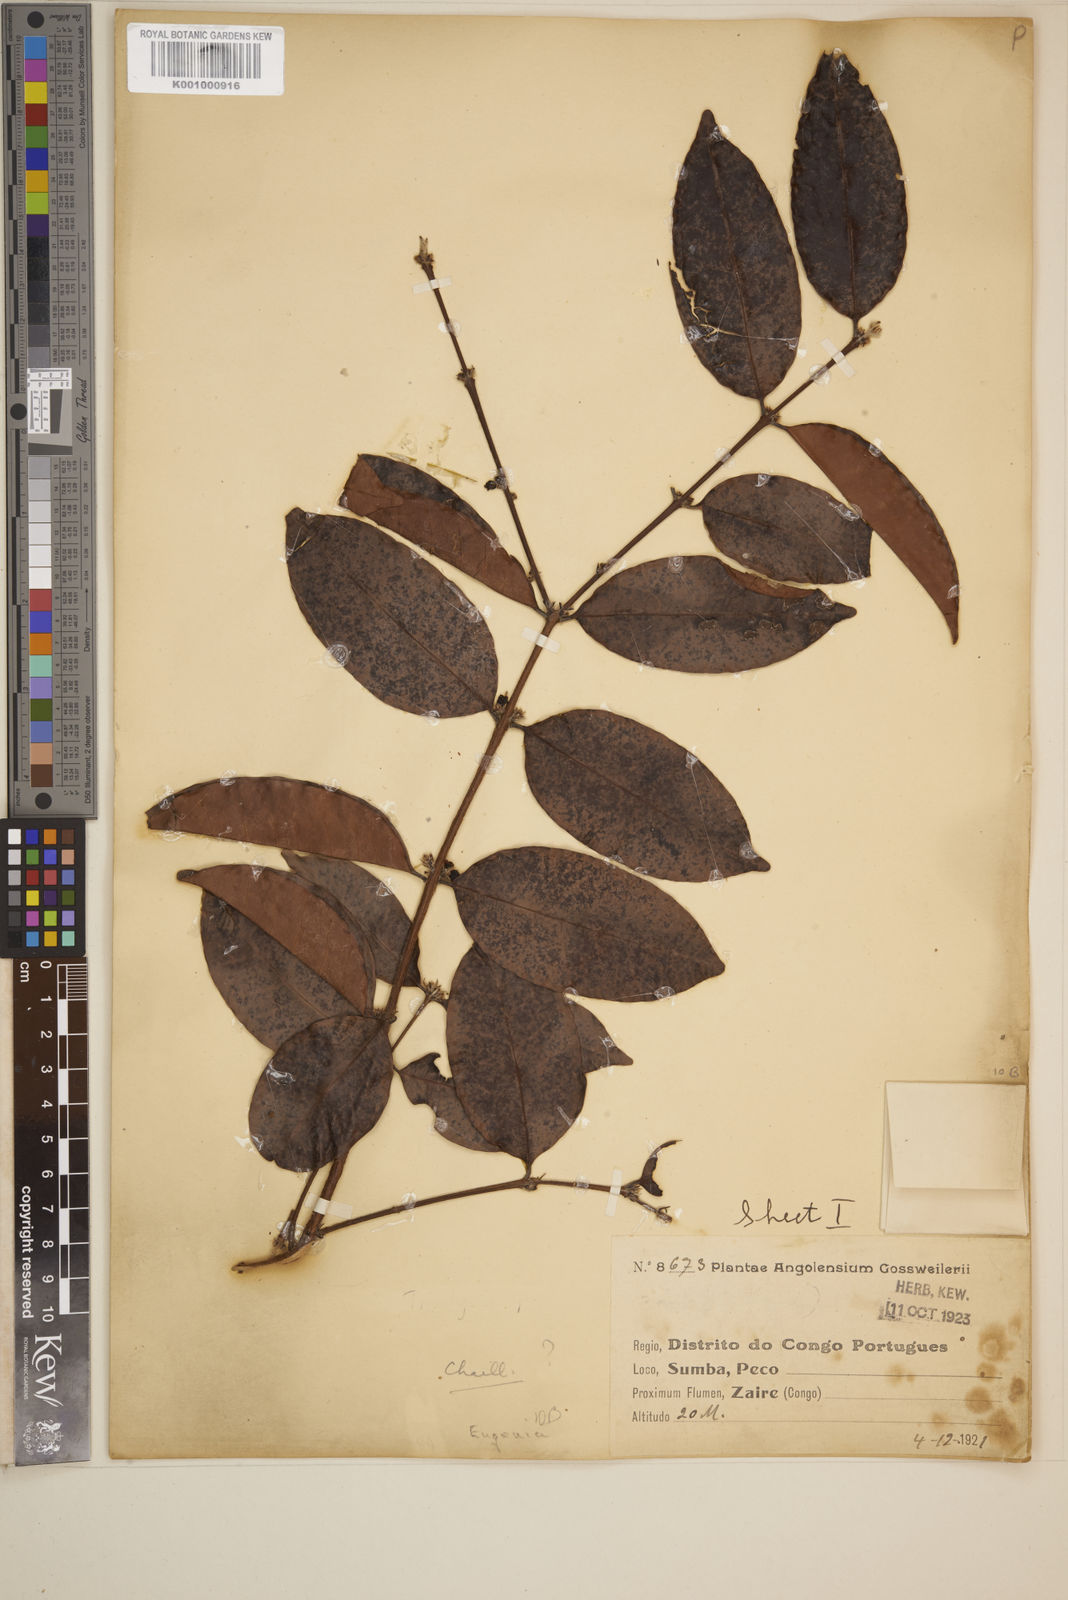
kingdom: Plantae
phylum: Tracheophyta
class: Magnoliopsida
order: Myrtales
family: Myrtaceae
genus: Eugenia
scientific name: Eugenia
